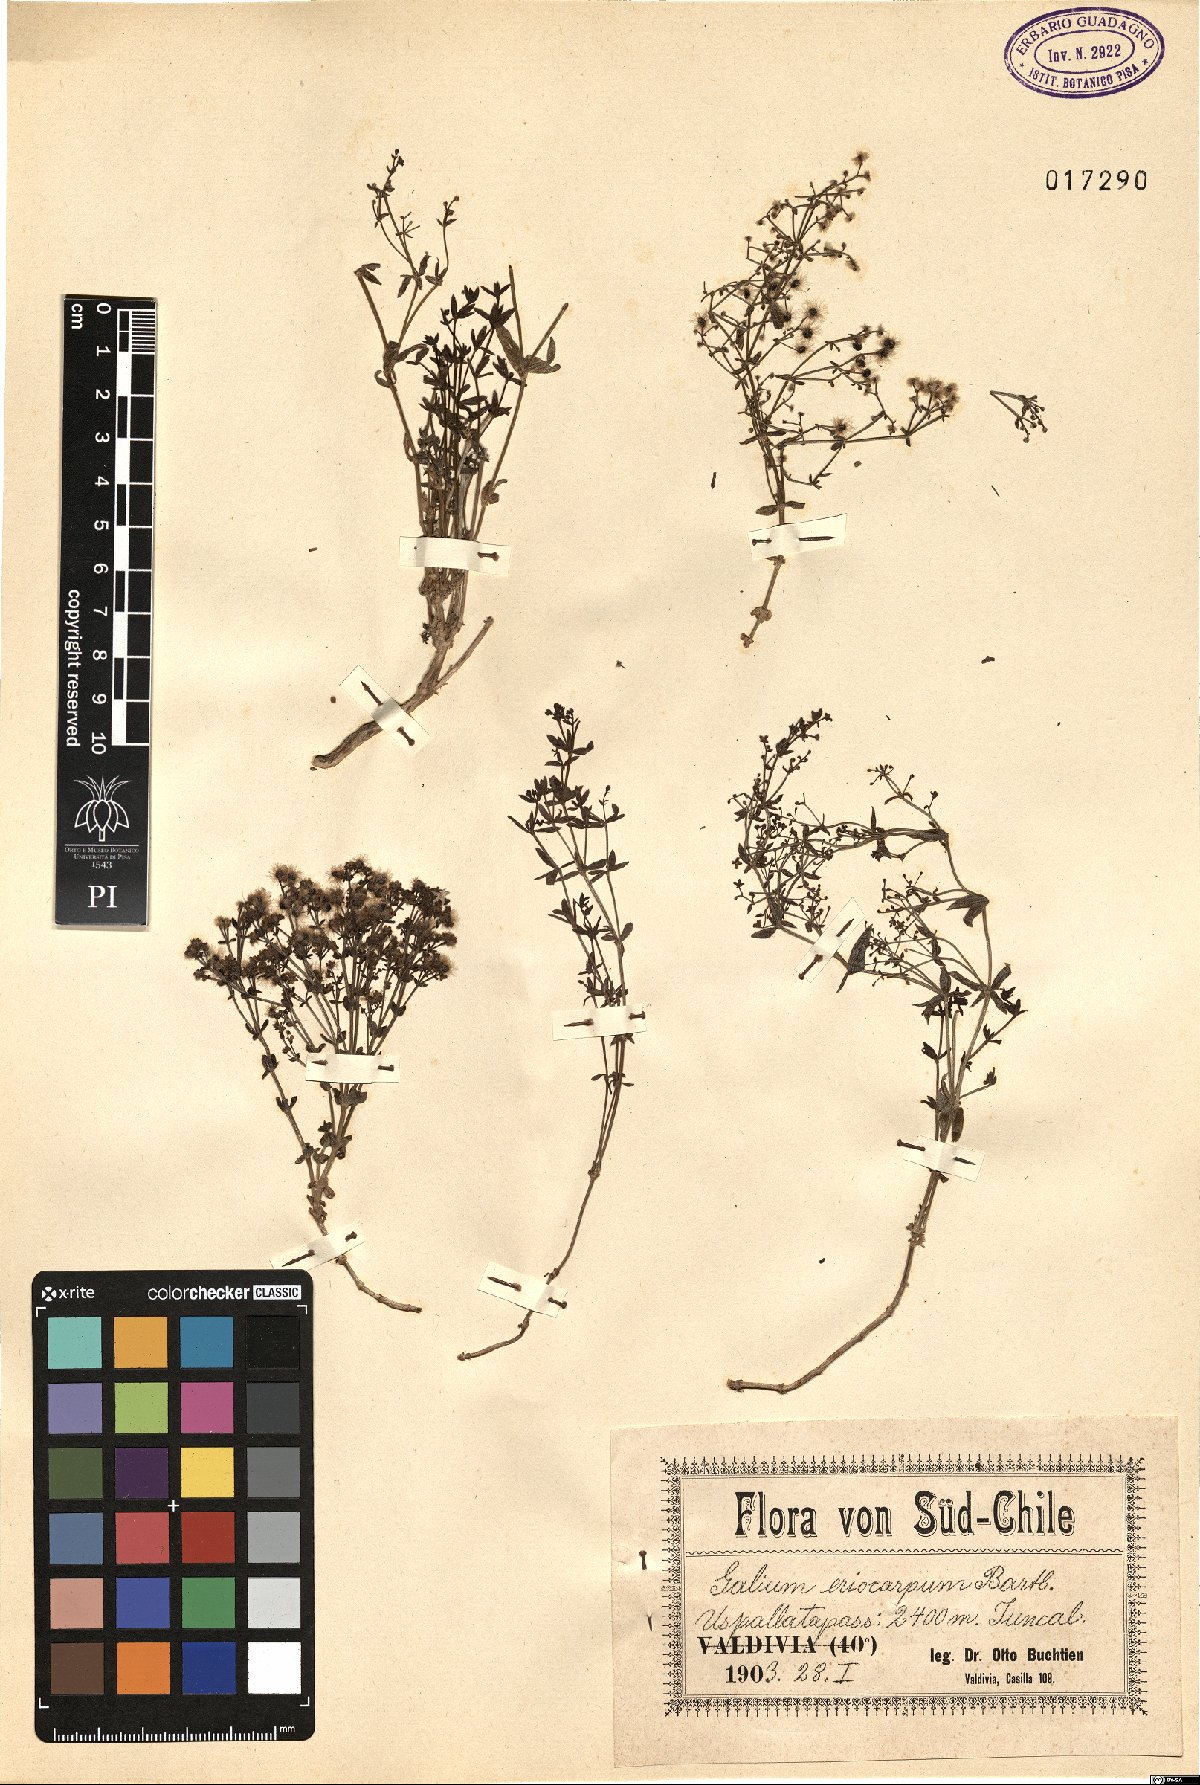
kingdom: Plantae
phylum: Tracheophyta
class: Magnoliopsida
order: Gentianales
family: Rubiaceae
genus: Galium
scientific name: Galium eriocarpum
